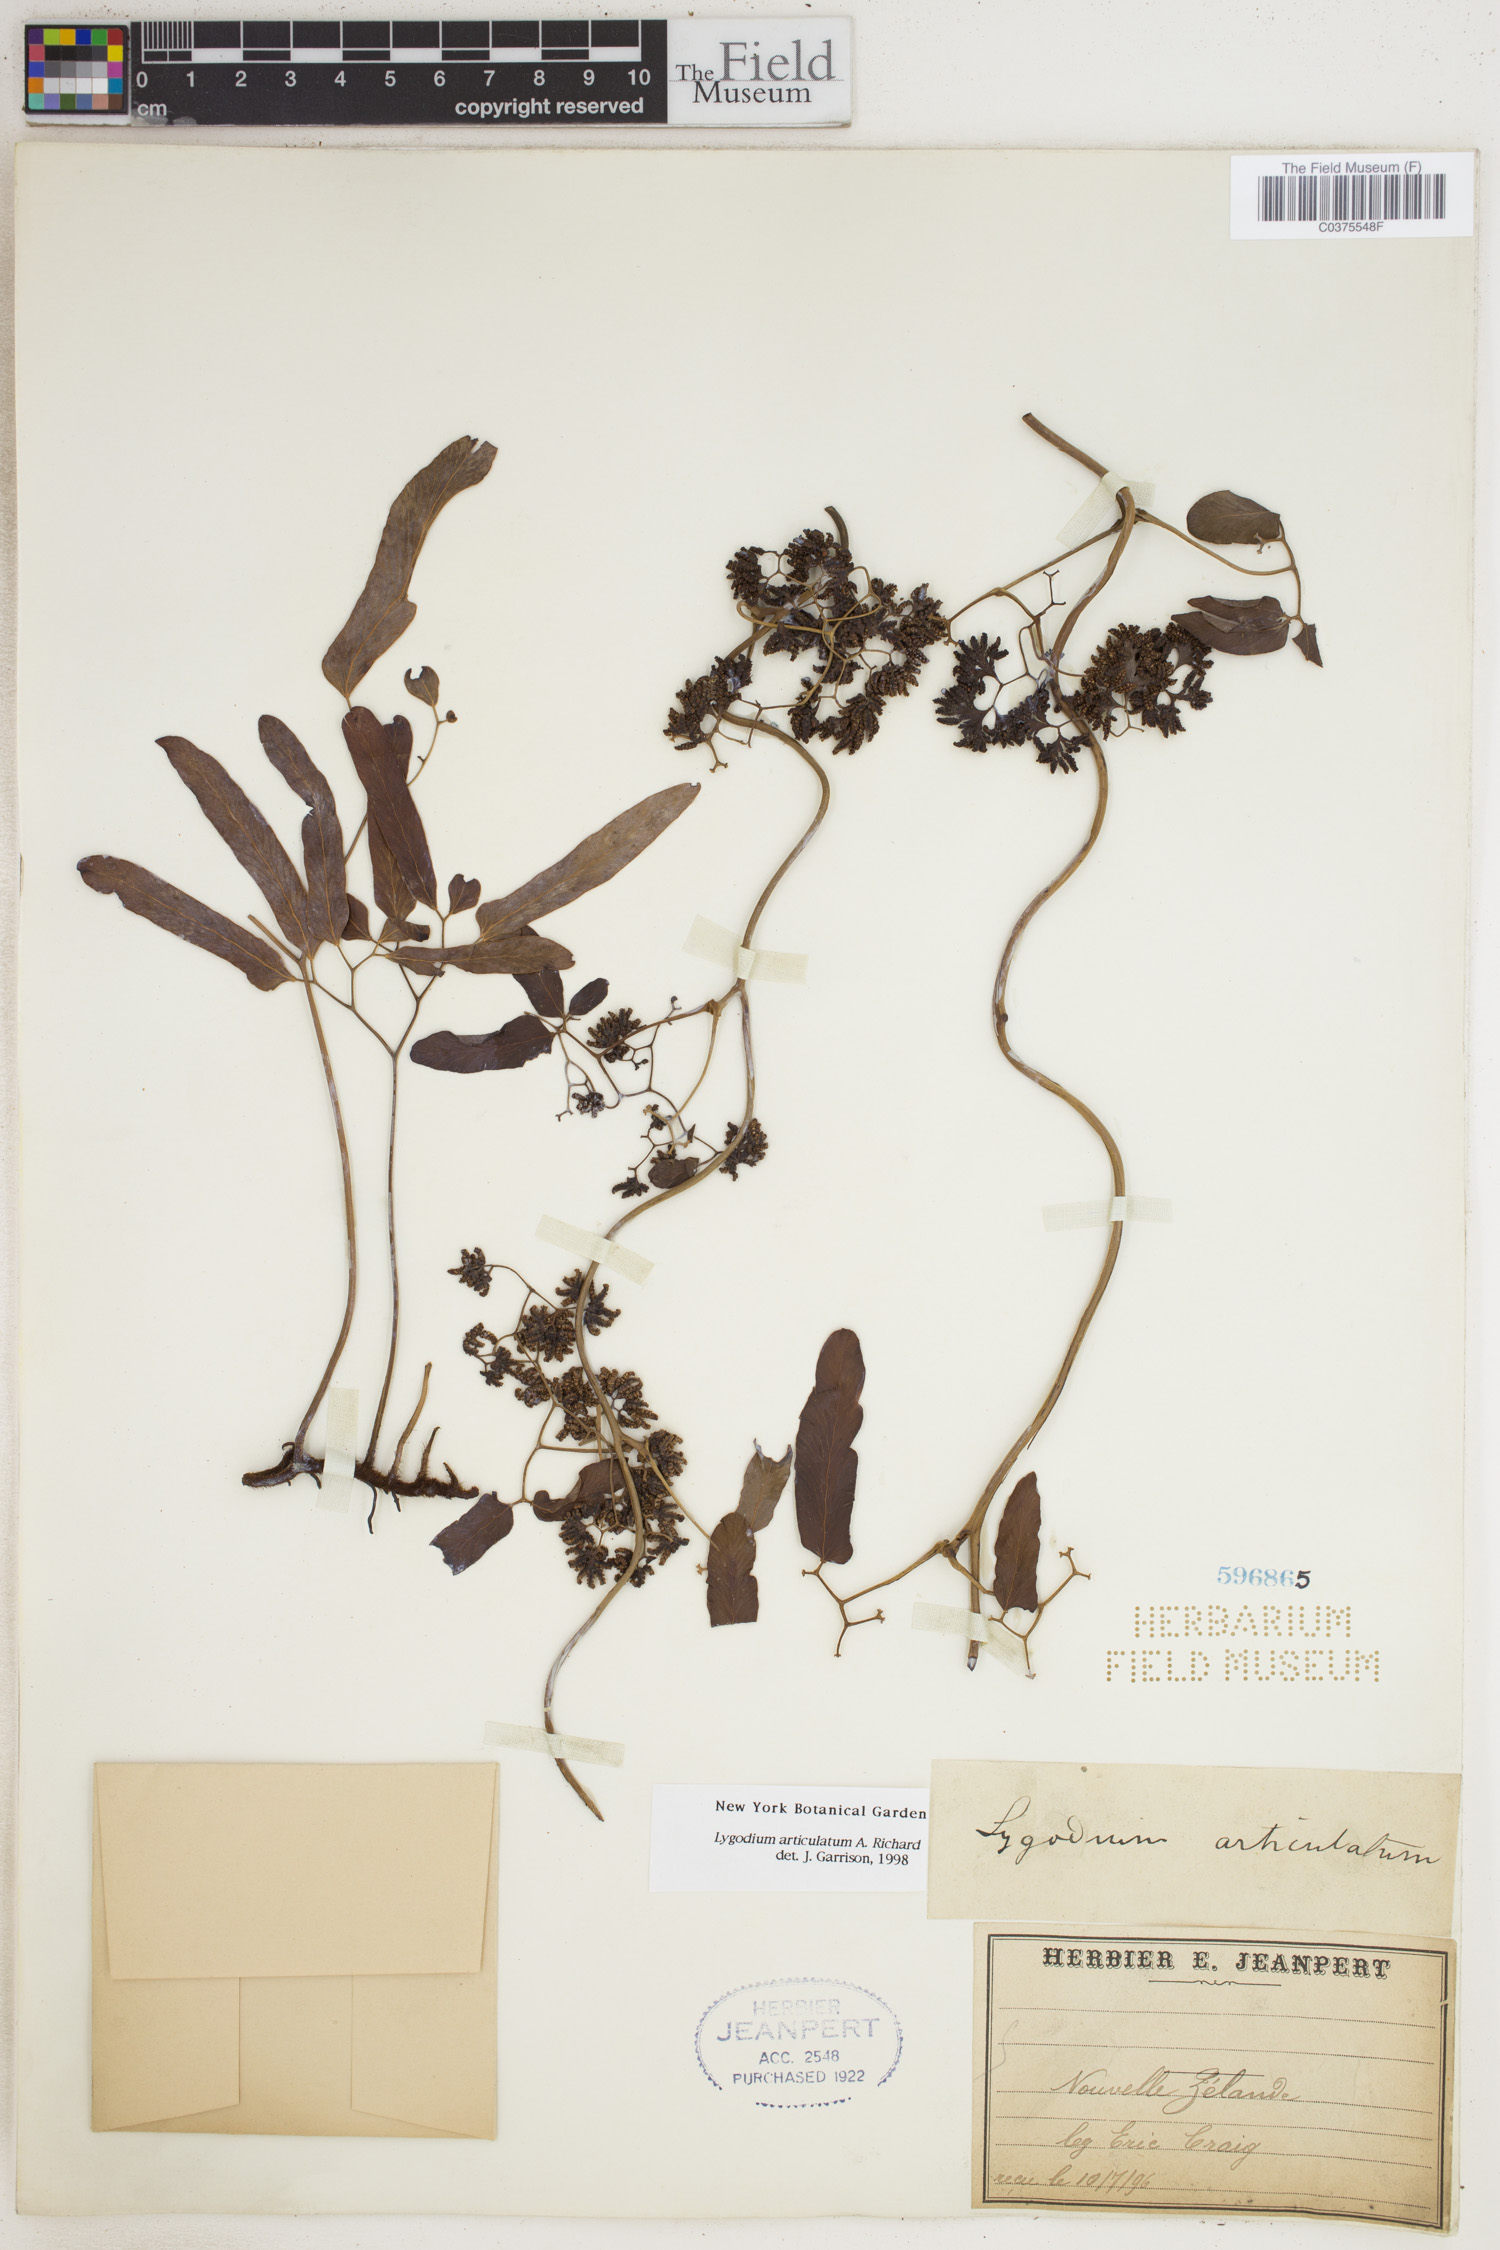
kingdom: Plantae
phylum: Tracheophyta
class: Polypodiopsida
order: Schizaeales
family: Lygodiaceae
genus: Lygodium
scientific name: Lygodium articulatum
